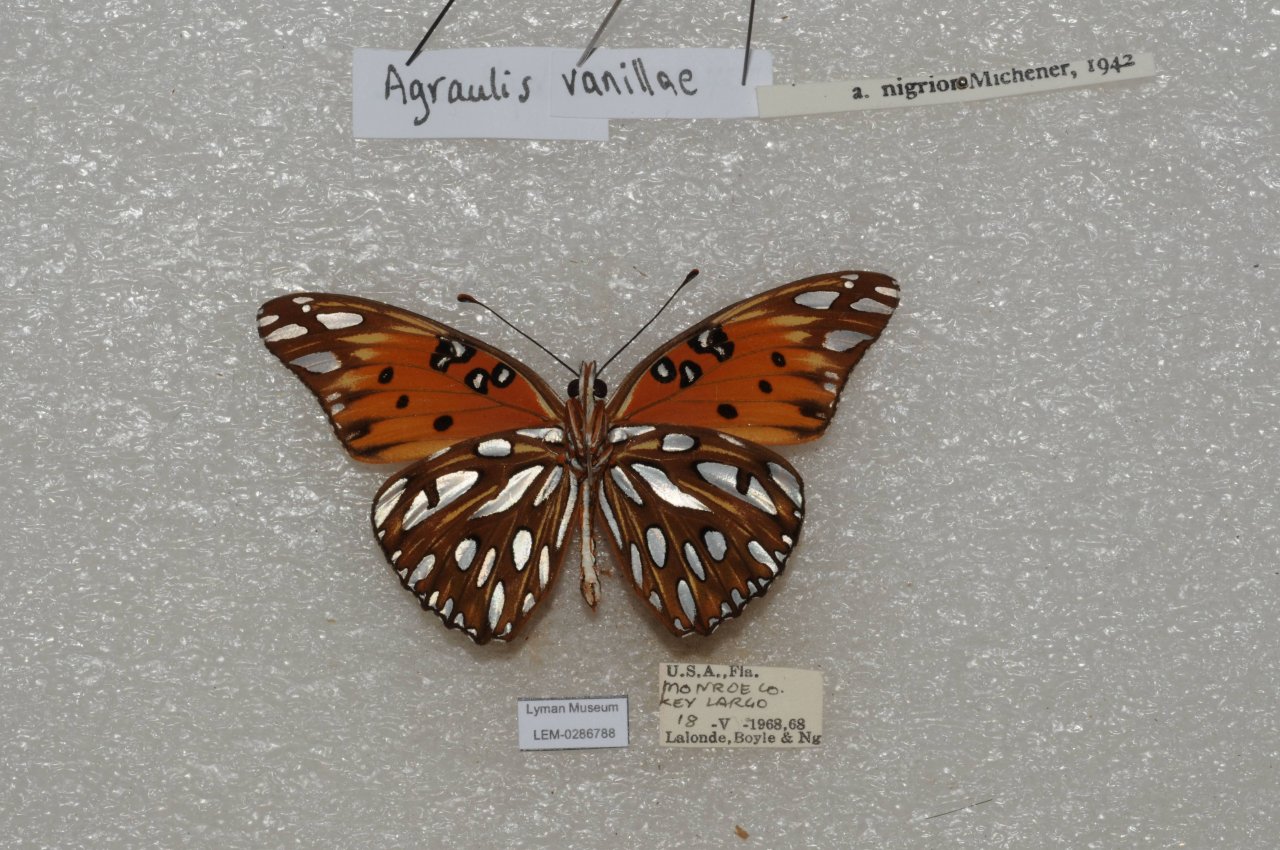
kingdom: Animalia
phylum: Arthropoda
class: Insecta
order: Lepidoptera
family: Nymphalidae
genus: Dione
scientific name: Dione vanillae
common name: Gulf Fritillary
